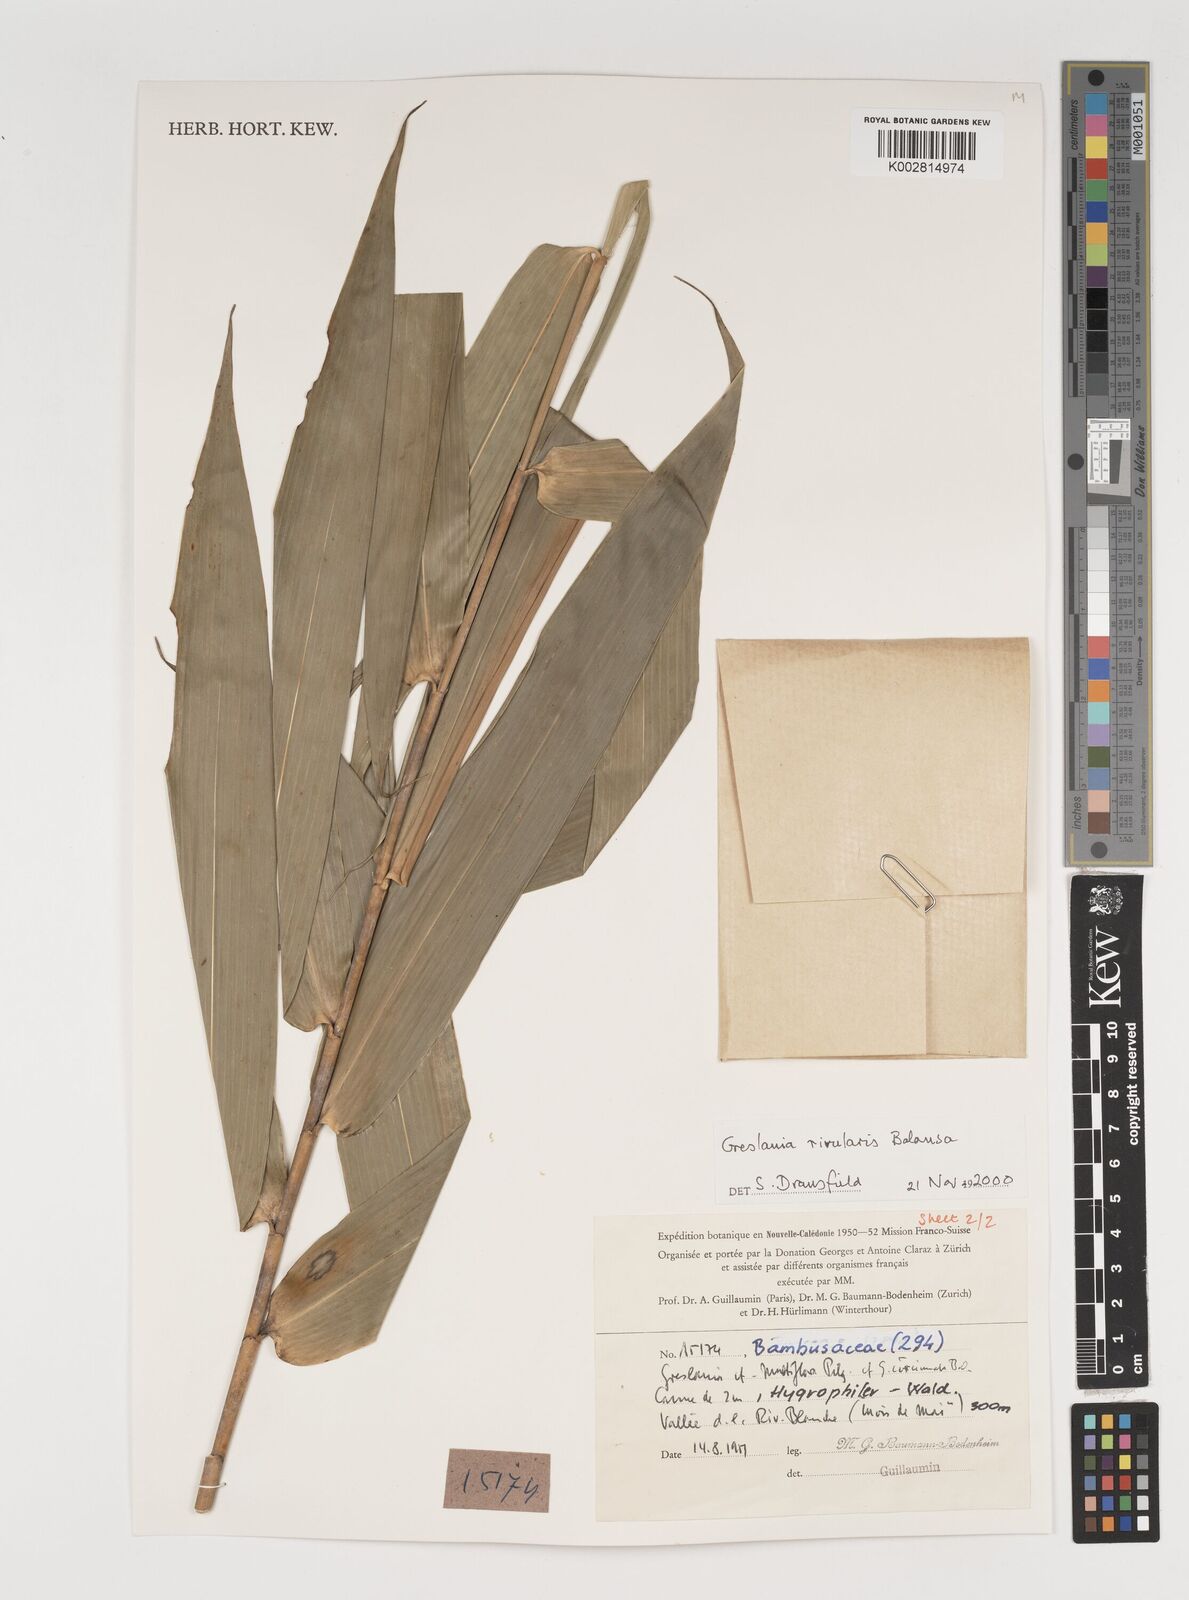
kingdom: Plantae
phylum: Tracheophyta
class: Liliopsida
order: Poales
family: Poaceae
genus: Greslania
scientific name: Greslania rivularis
